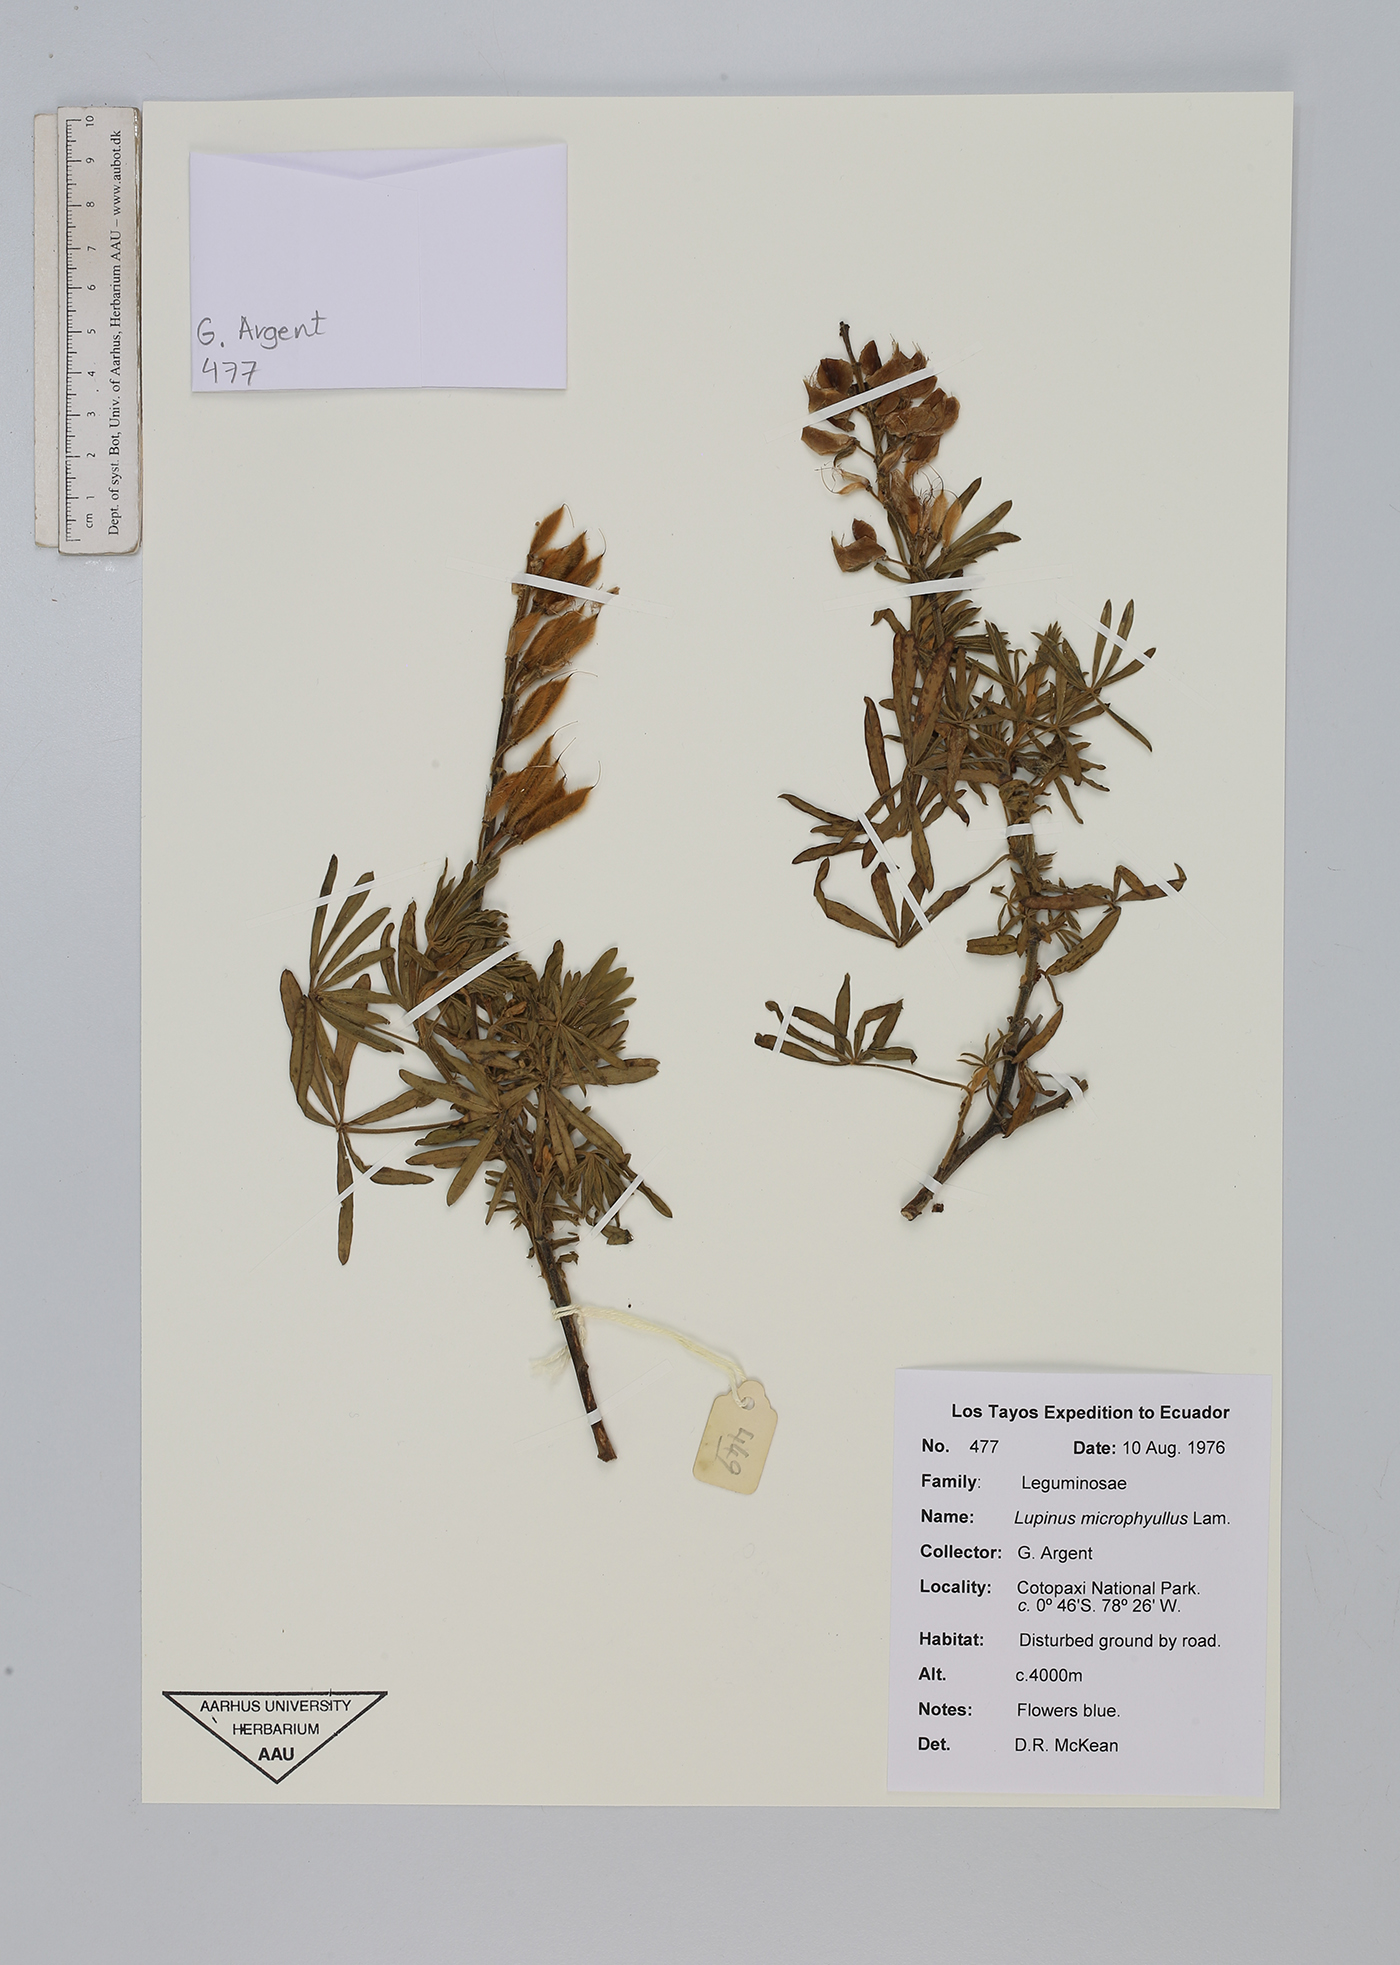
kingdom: Plantae
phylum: Tracheophyta
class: Magnoliopsida
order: Fabales
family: Fabaceae
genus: Lupinus
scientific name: Lupinus microphyllus
